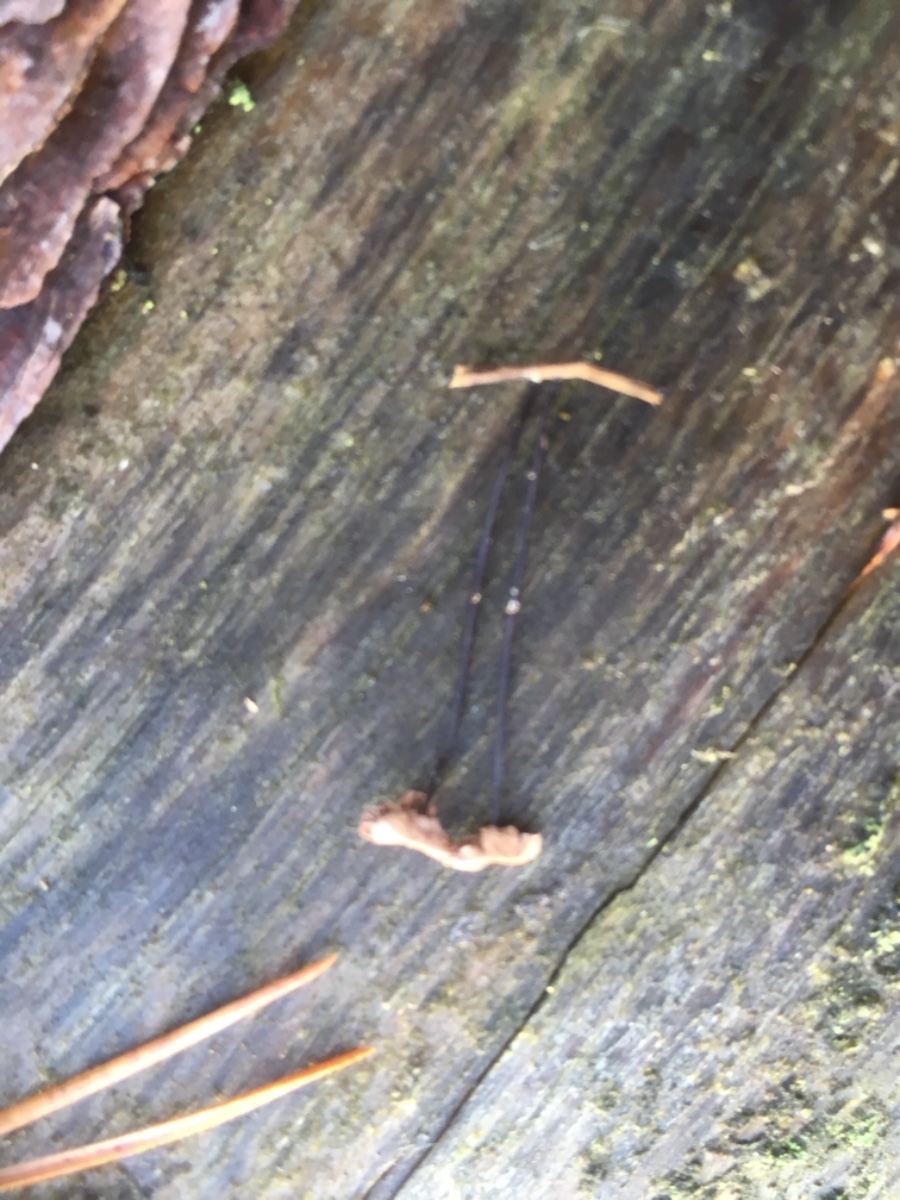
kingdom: Fungi
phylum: Basidiomycota
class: Agaricomycetes
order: Agaricales
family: Omphalotaceae
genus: Marasmiellus
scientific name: Marasmiellus
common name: bruskhat
